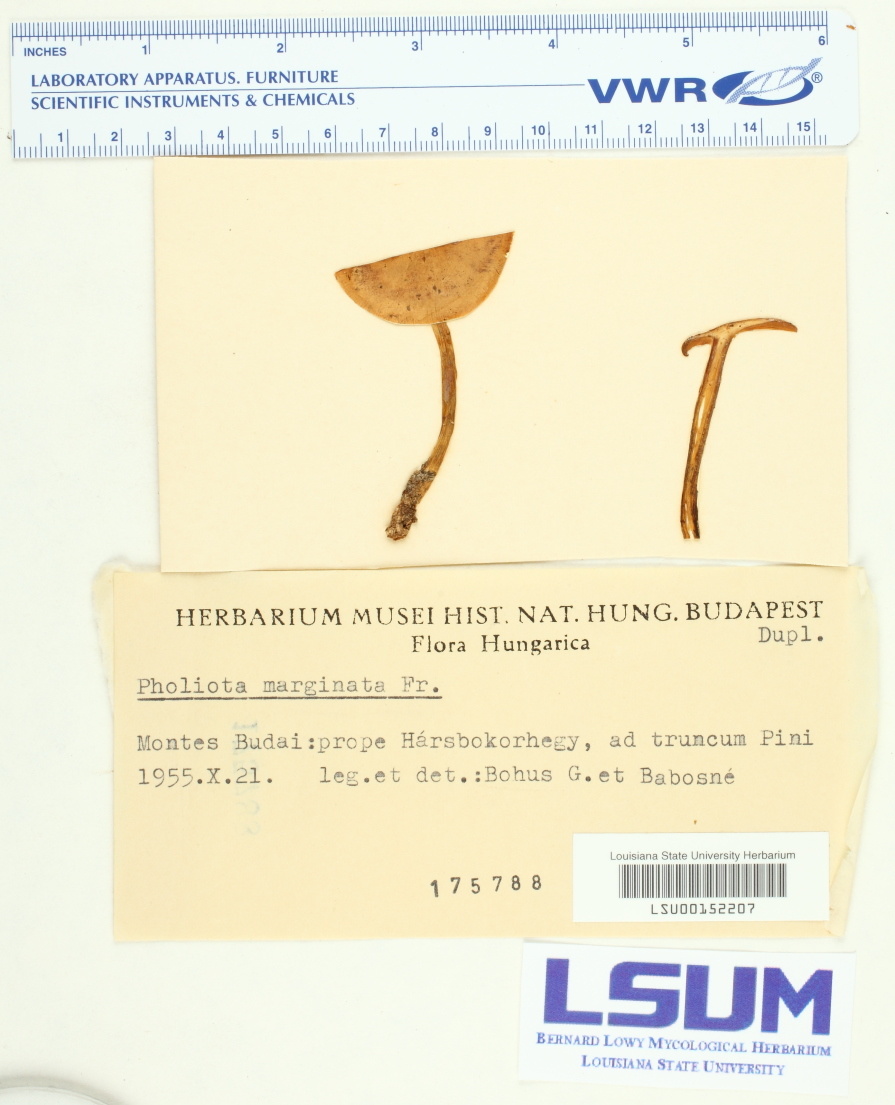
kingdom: Fungi
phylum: Basidiomycota
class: Agaricomycetes
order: Agaricales
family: Hymenogastraceae
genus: Galerina
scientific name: Galerina marginata
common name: Funeral bell
